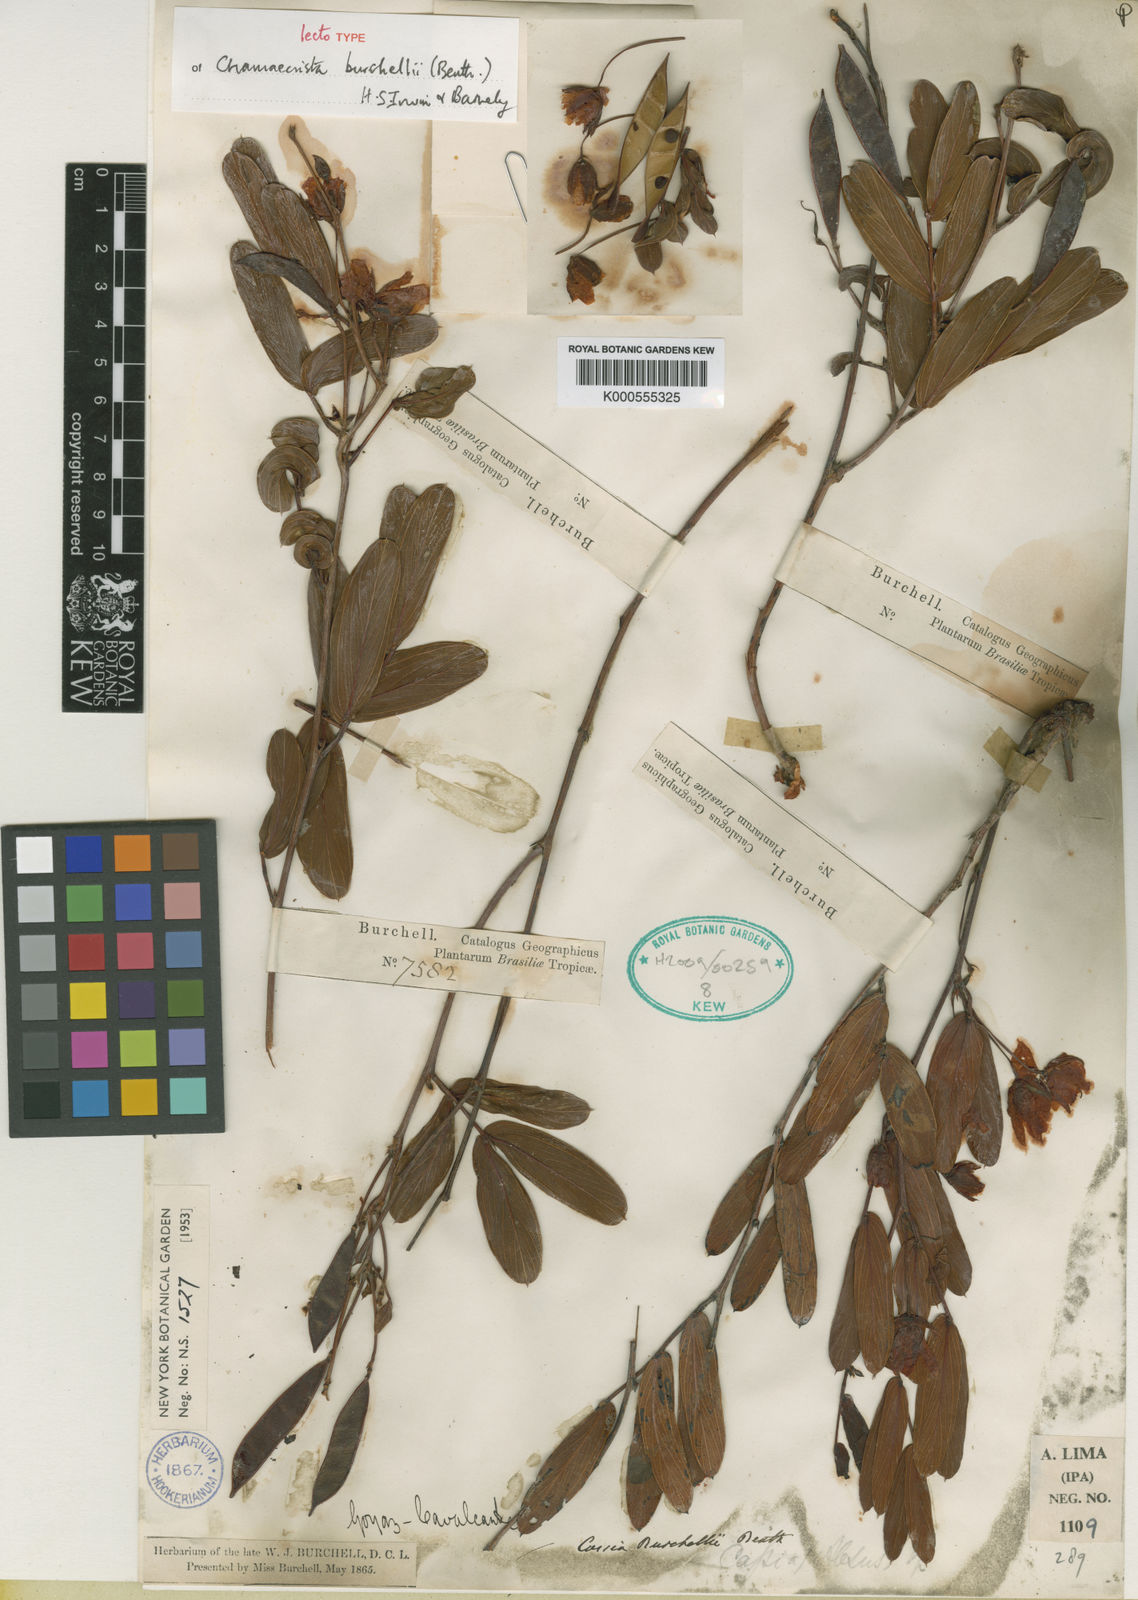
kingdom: Plantae
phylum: Tracheophyta
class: Magnoliopsida
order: Fabales
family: Fabaceae
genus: Chamaecrista
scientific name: Chamaecrista burchellii
